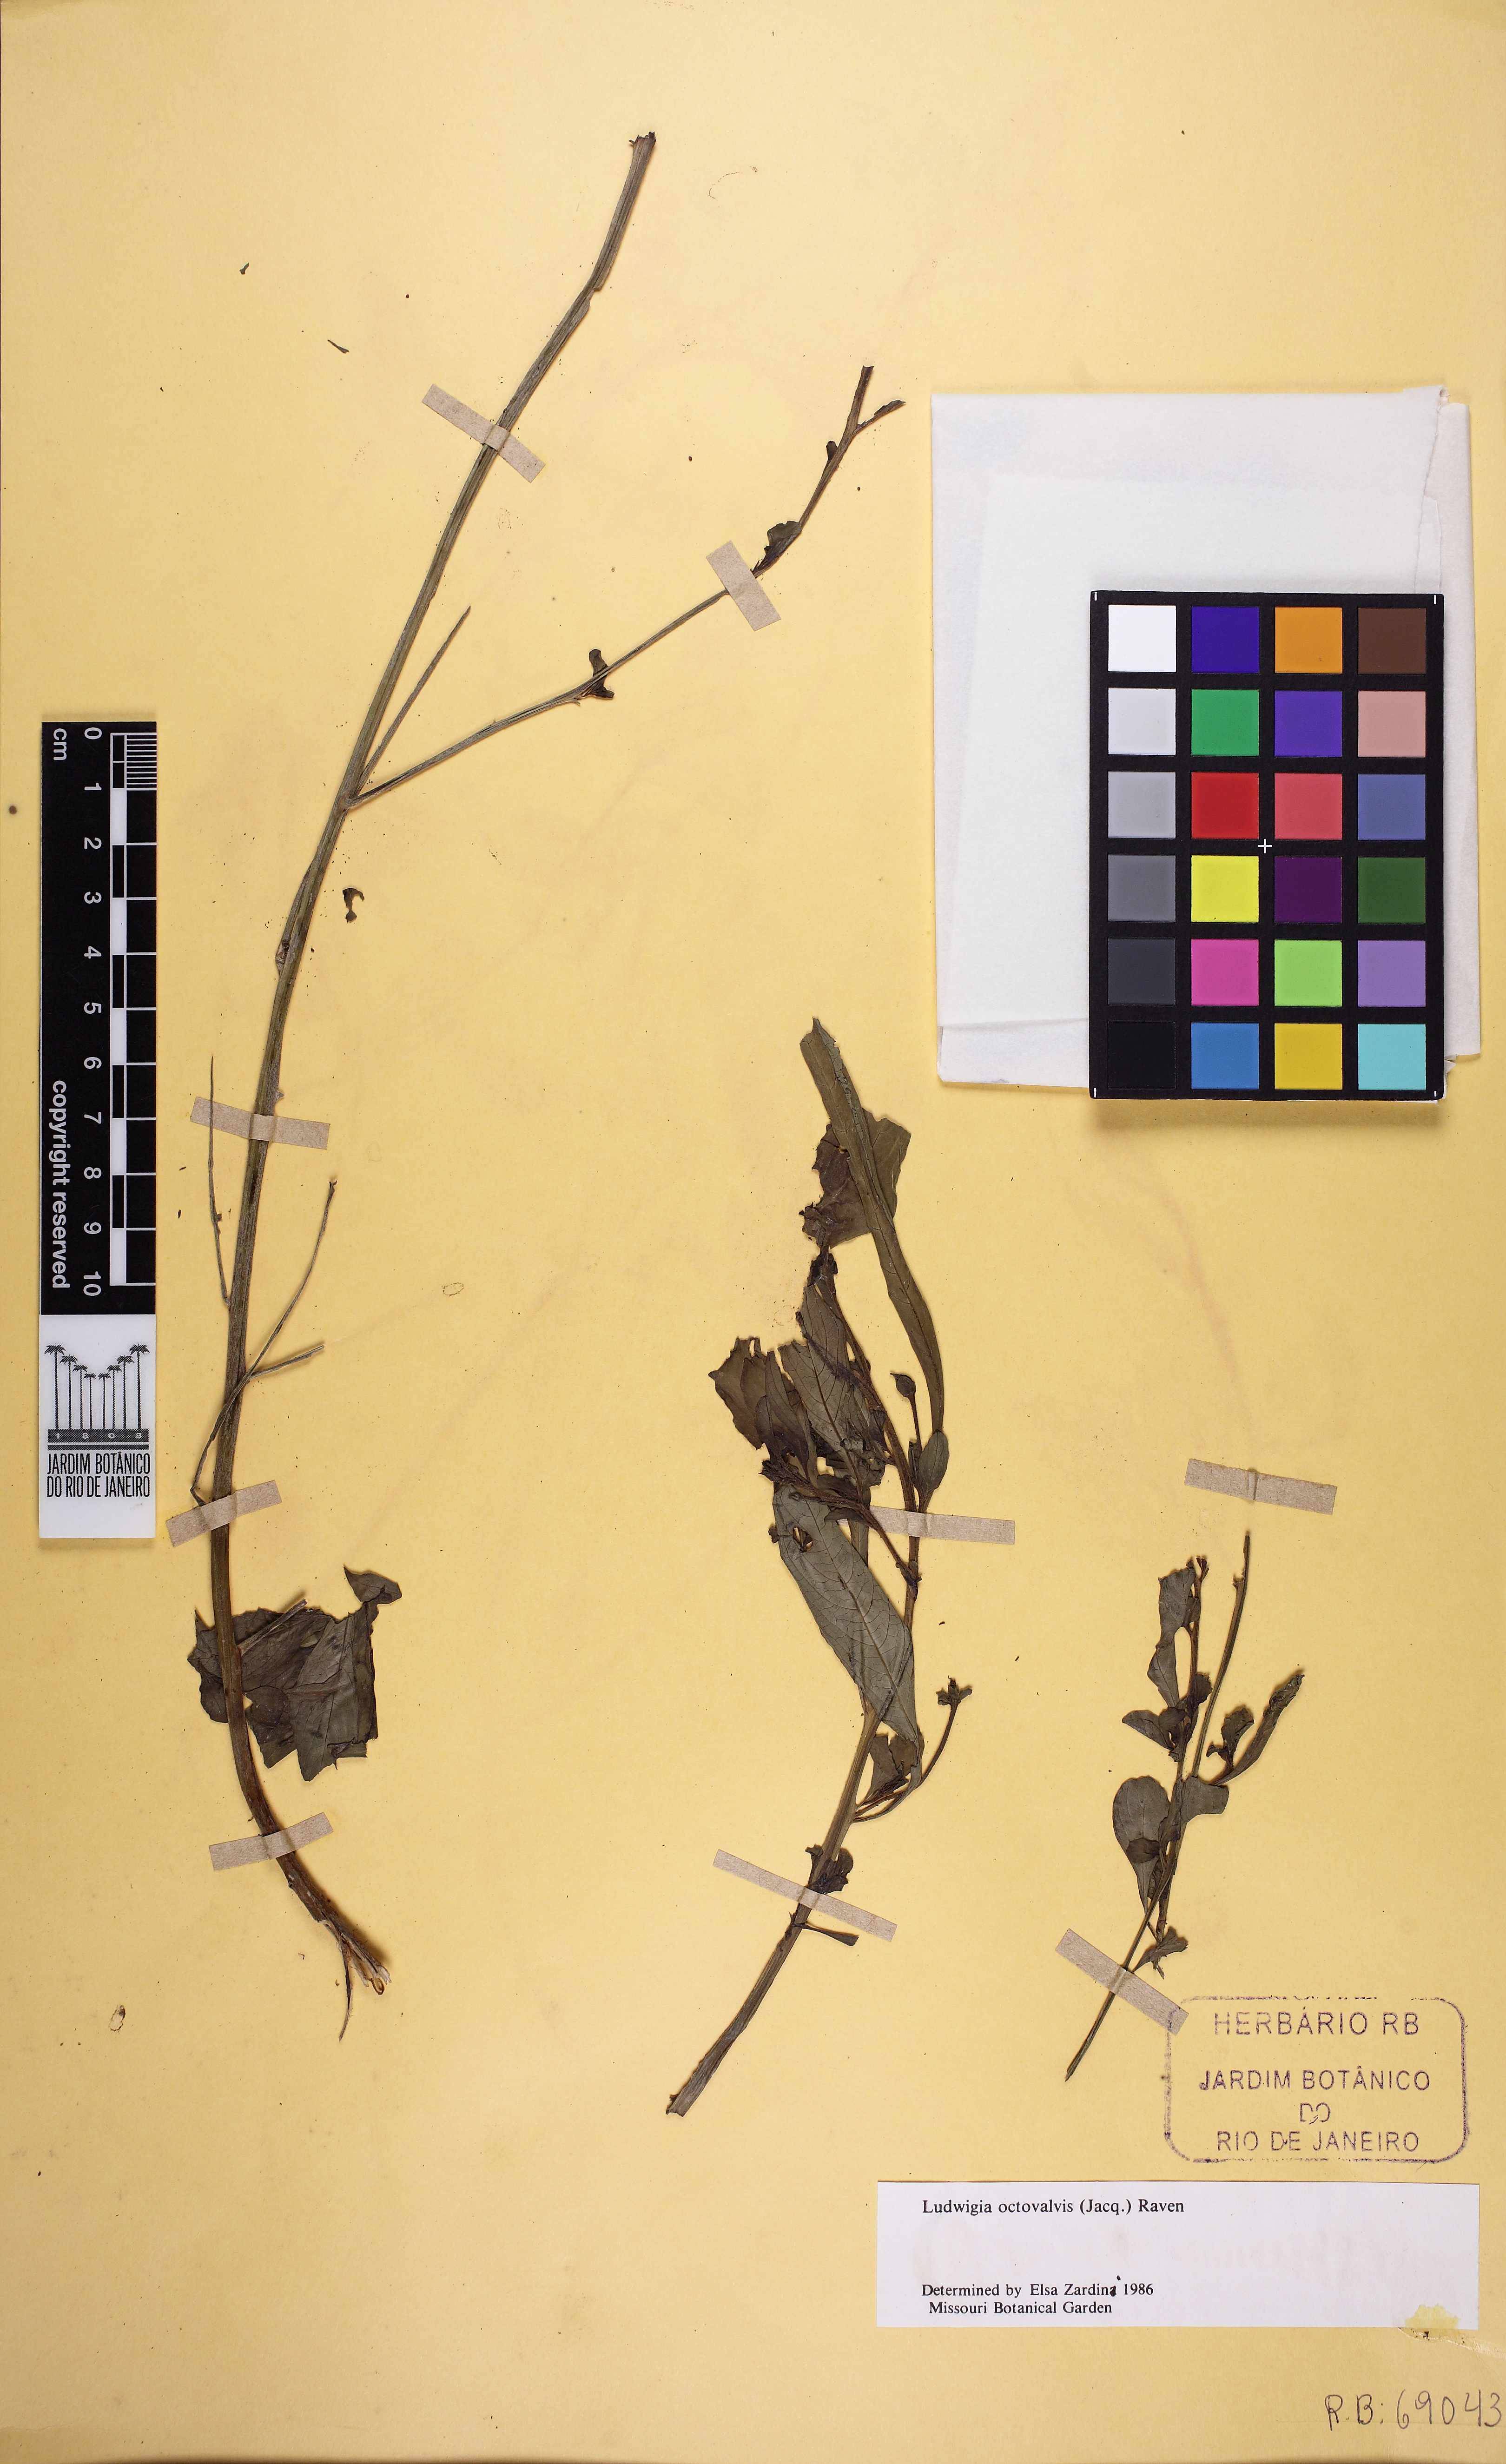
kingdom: Plantae
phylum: Tracheophyta
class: Magnoliopsida
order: Myrtales
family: Onagraceae
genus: Ludwigia
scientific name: Ludwigia octovalvis
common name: Water-primrose
